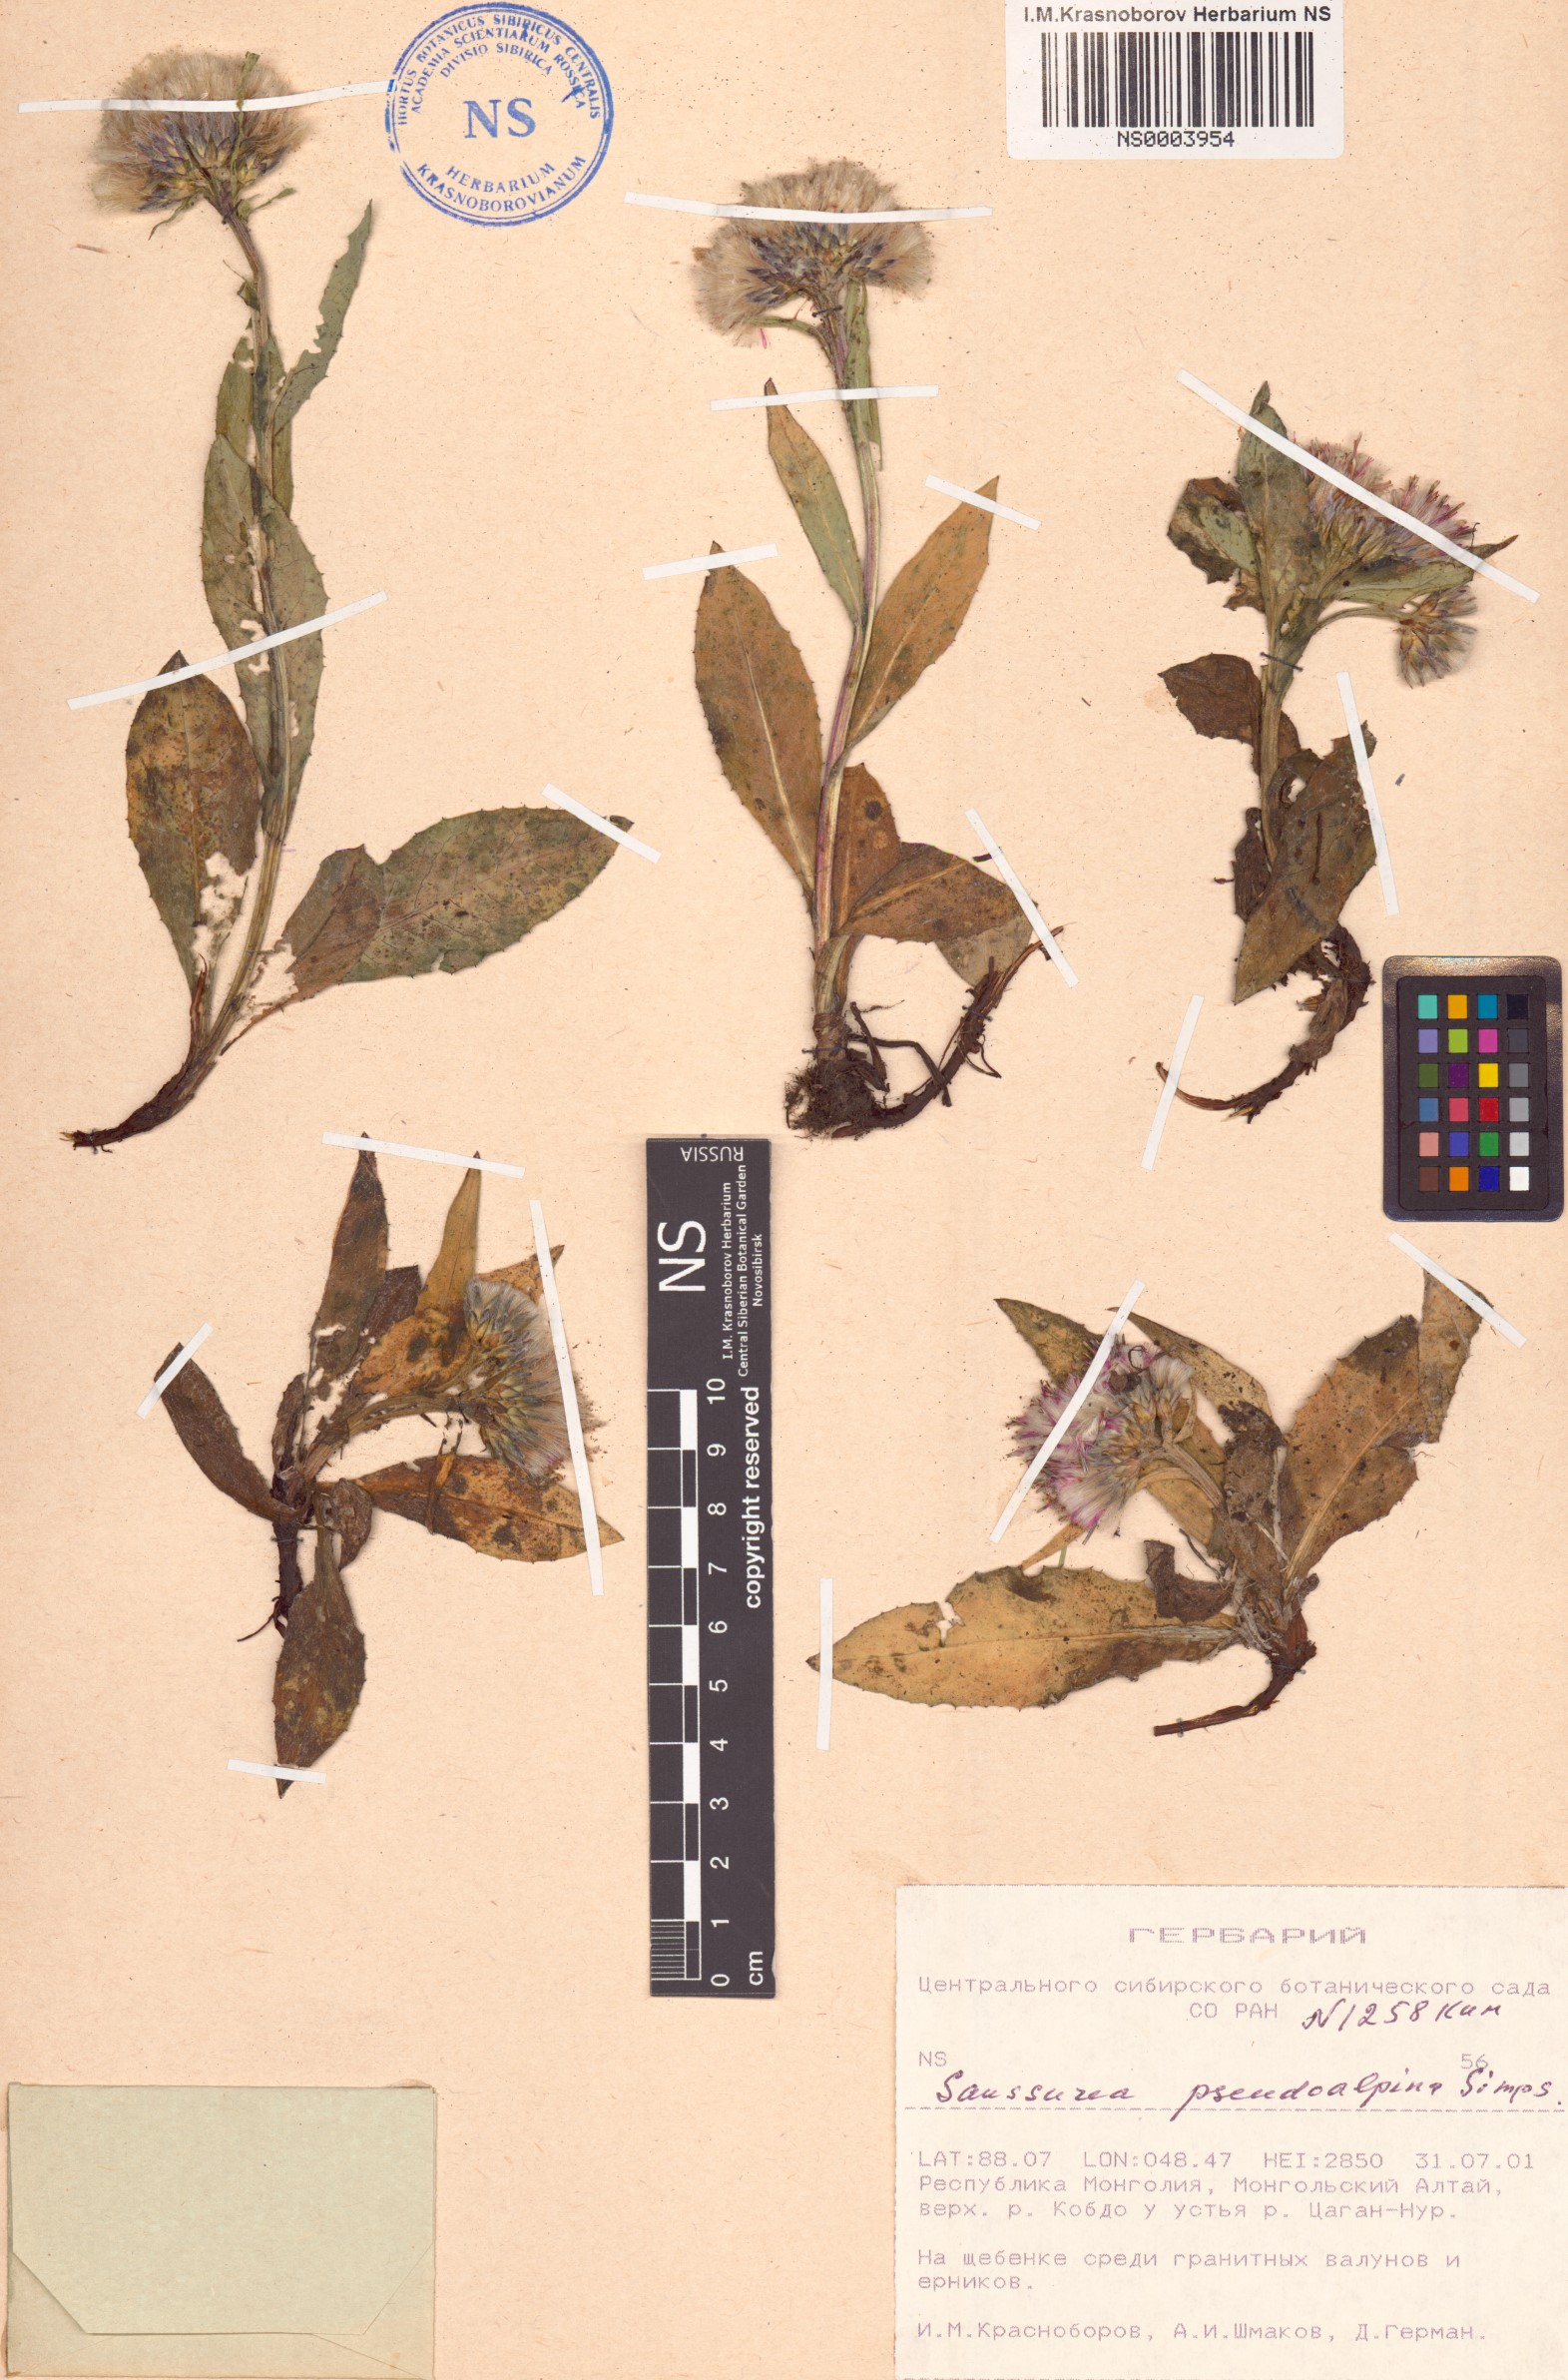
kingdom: Plantae
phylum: Tracheophyta
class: Magnoliopsida
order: Asterales
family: Asteraceae
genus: Saussurea
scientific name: Saussurea pseudoalpina
